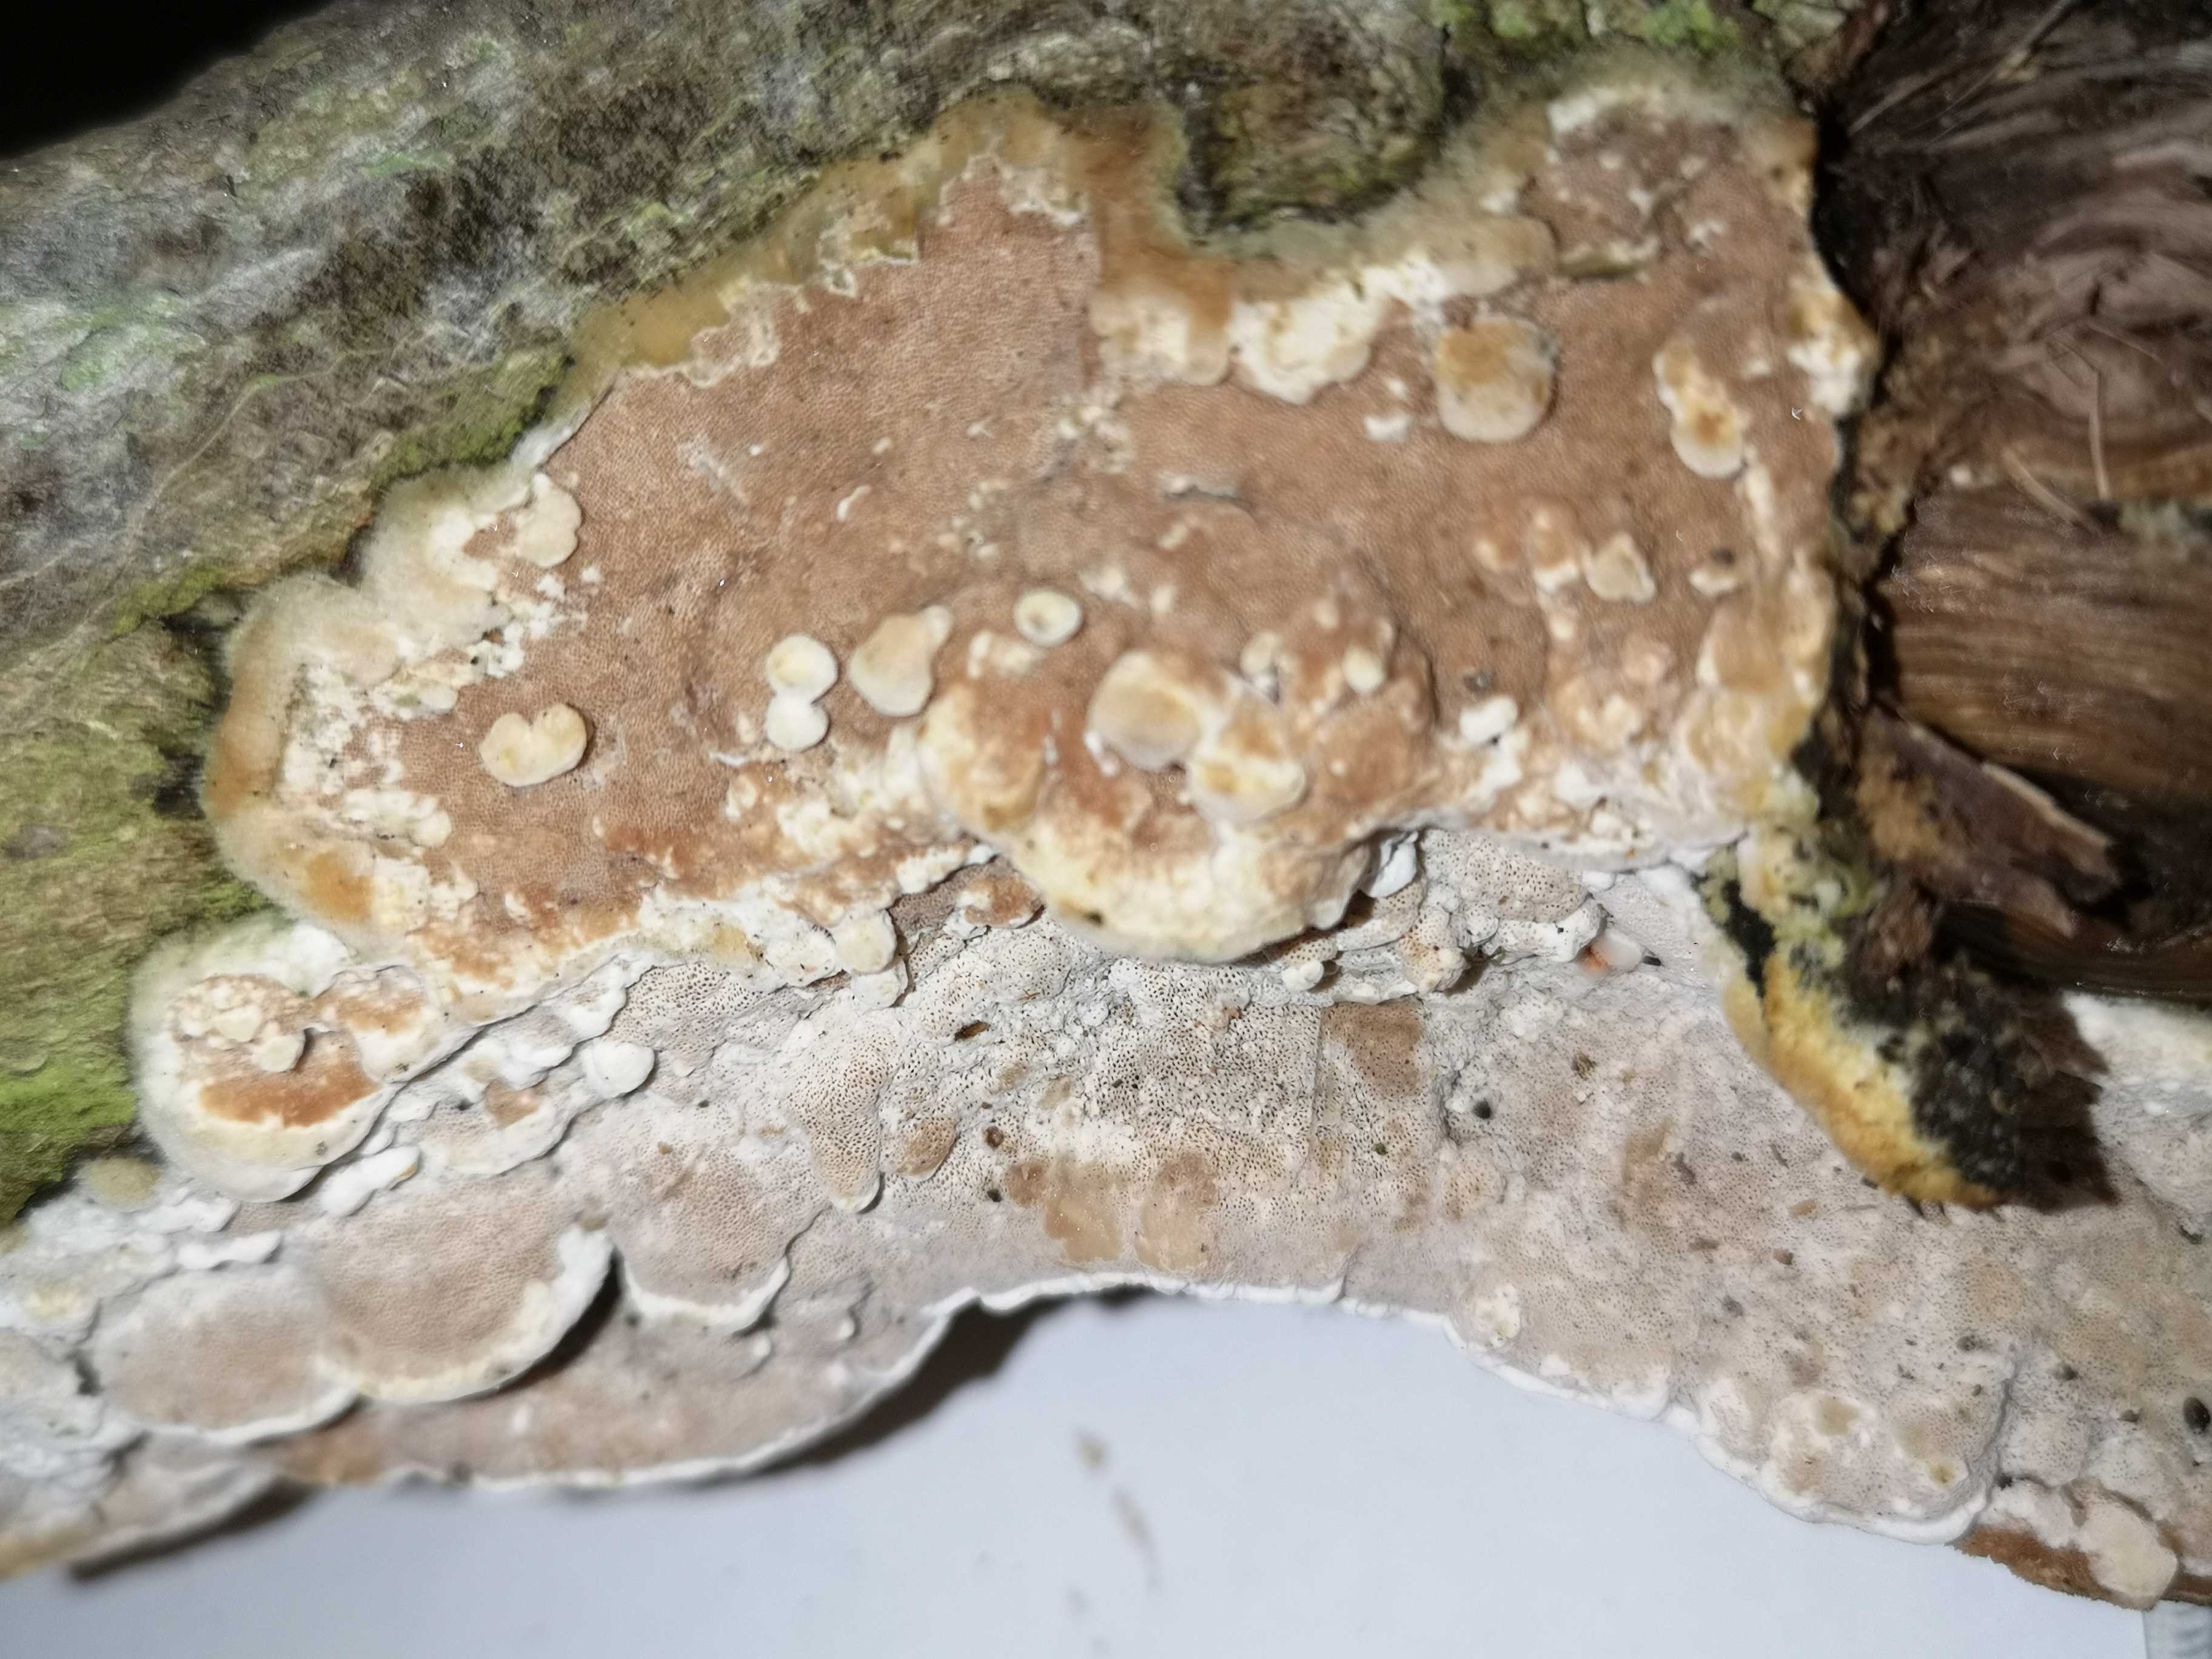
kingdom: Fungi
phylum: Basidiomycota
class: Agaricomycetes
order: Polyporales
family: Irpicaceae
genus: Vitreoporus
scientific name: Vitreoporus dichrous
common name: tofarvet foldporesvamp
